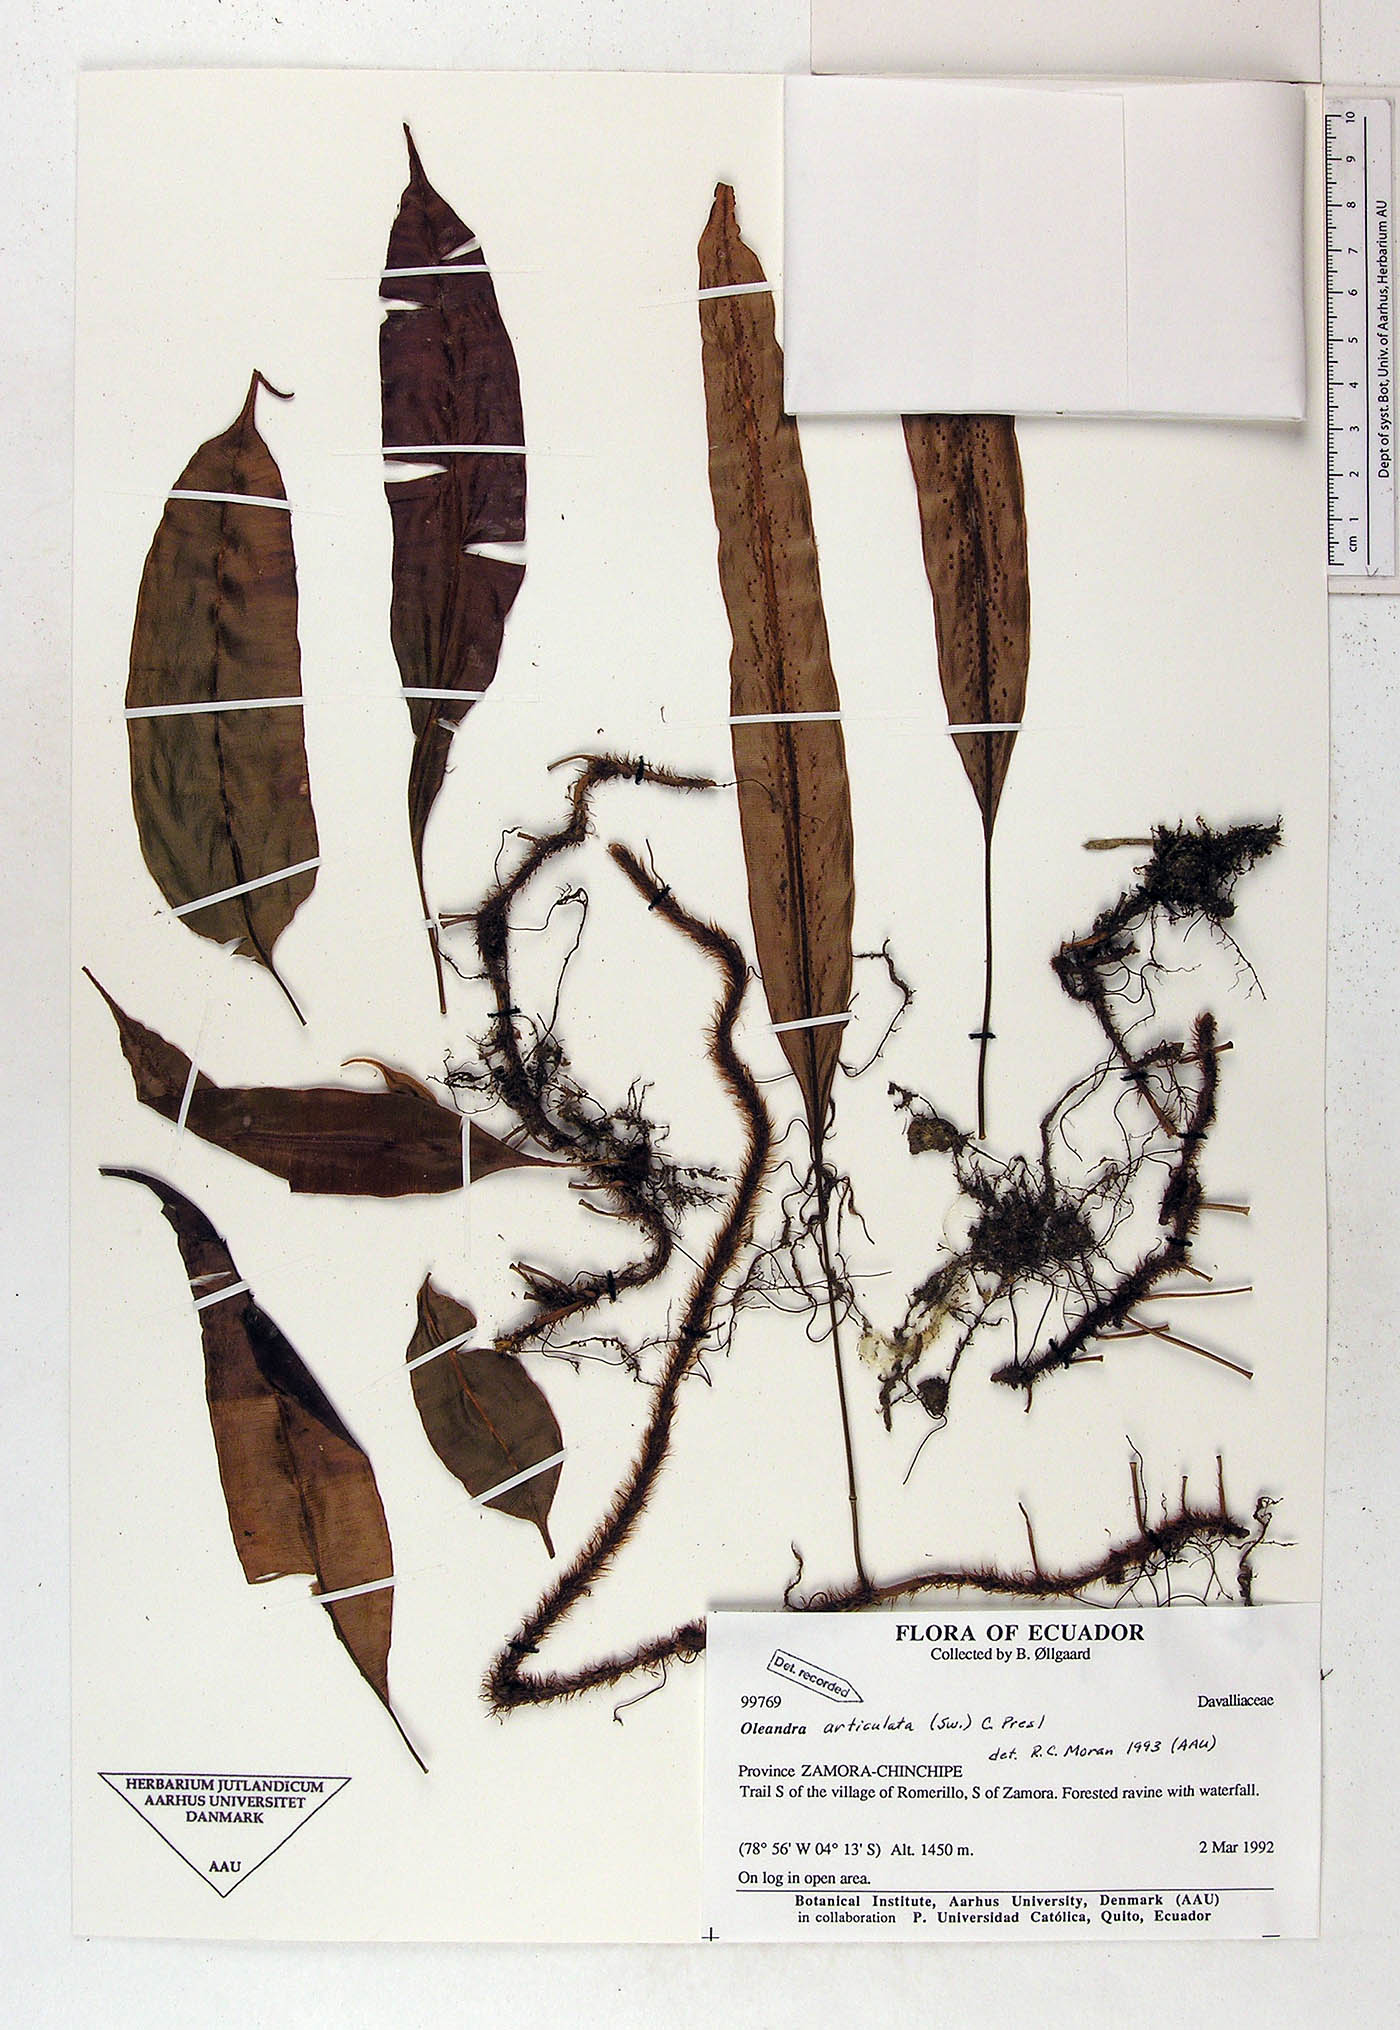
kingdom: Plantae
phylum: Tracheophyta
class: Polypodiopsida
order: Polypodiales
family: Oleandraceae
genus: Oleandra
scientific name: Oleandra articulata
